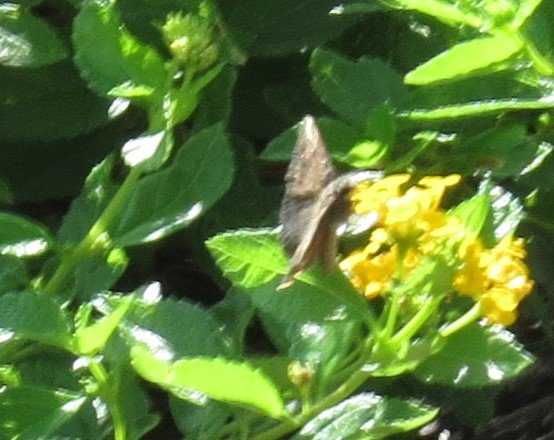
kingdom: Animalia
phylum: Arthropoda
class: Insecta
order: Lepidoptera
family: Hesperiidae
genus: Gesta
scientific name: Gesta
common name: Horace's Duskywing
